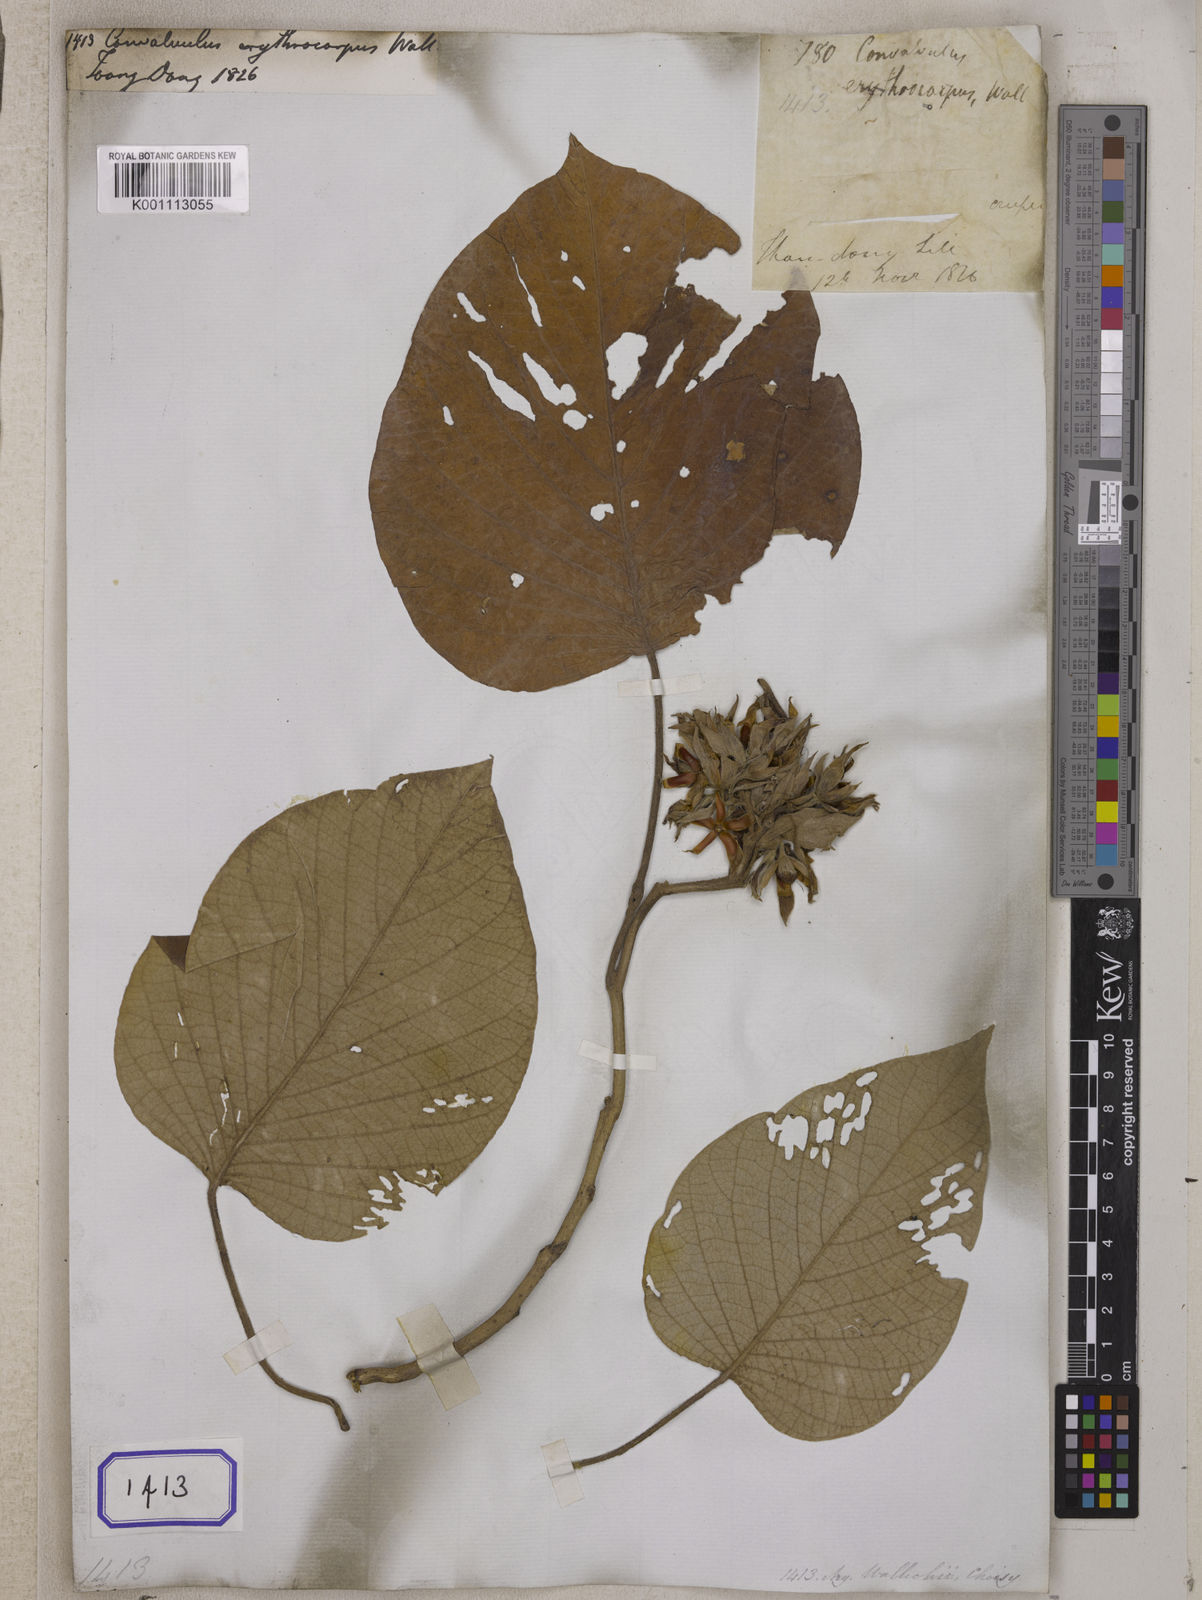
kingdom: Plantae
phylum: Tracheophyta
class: Magnoliopsida
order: Solanales
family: Convolvulaceae
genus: Argyreia
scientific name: Argyreia lanceolata
